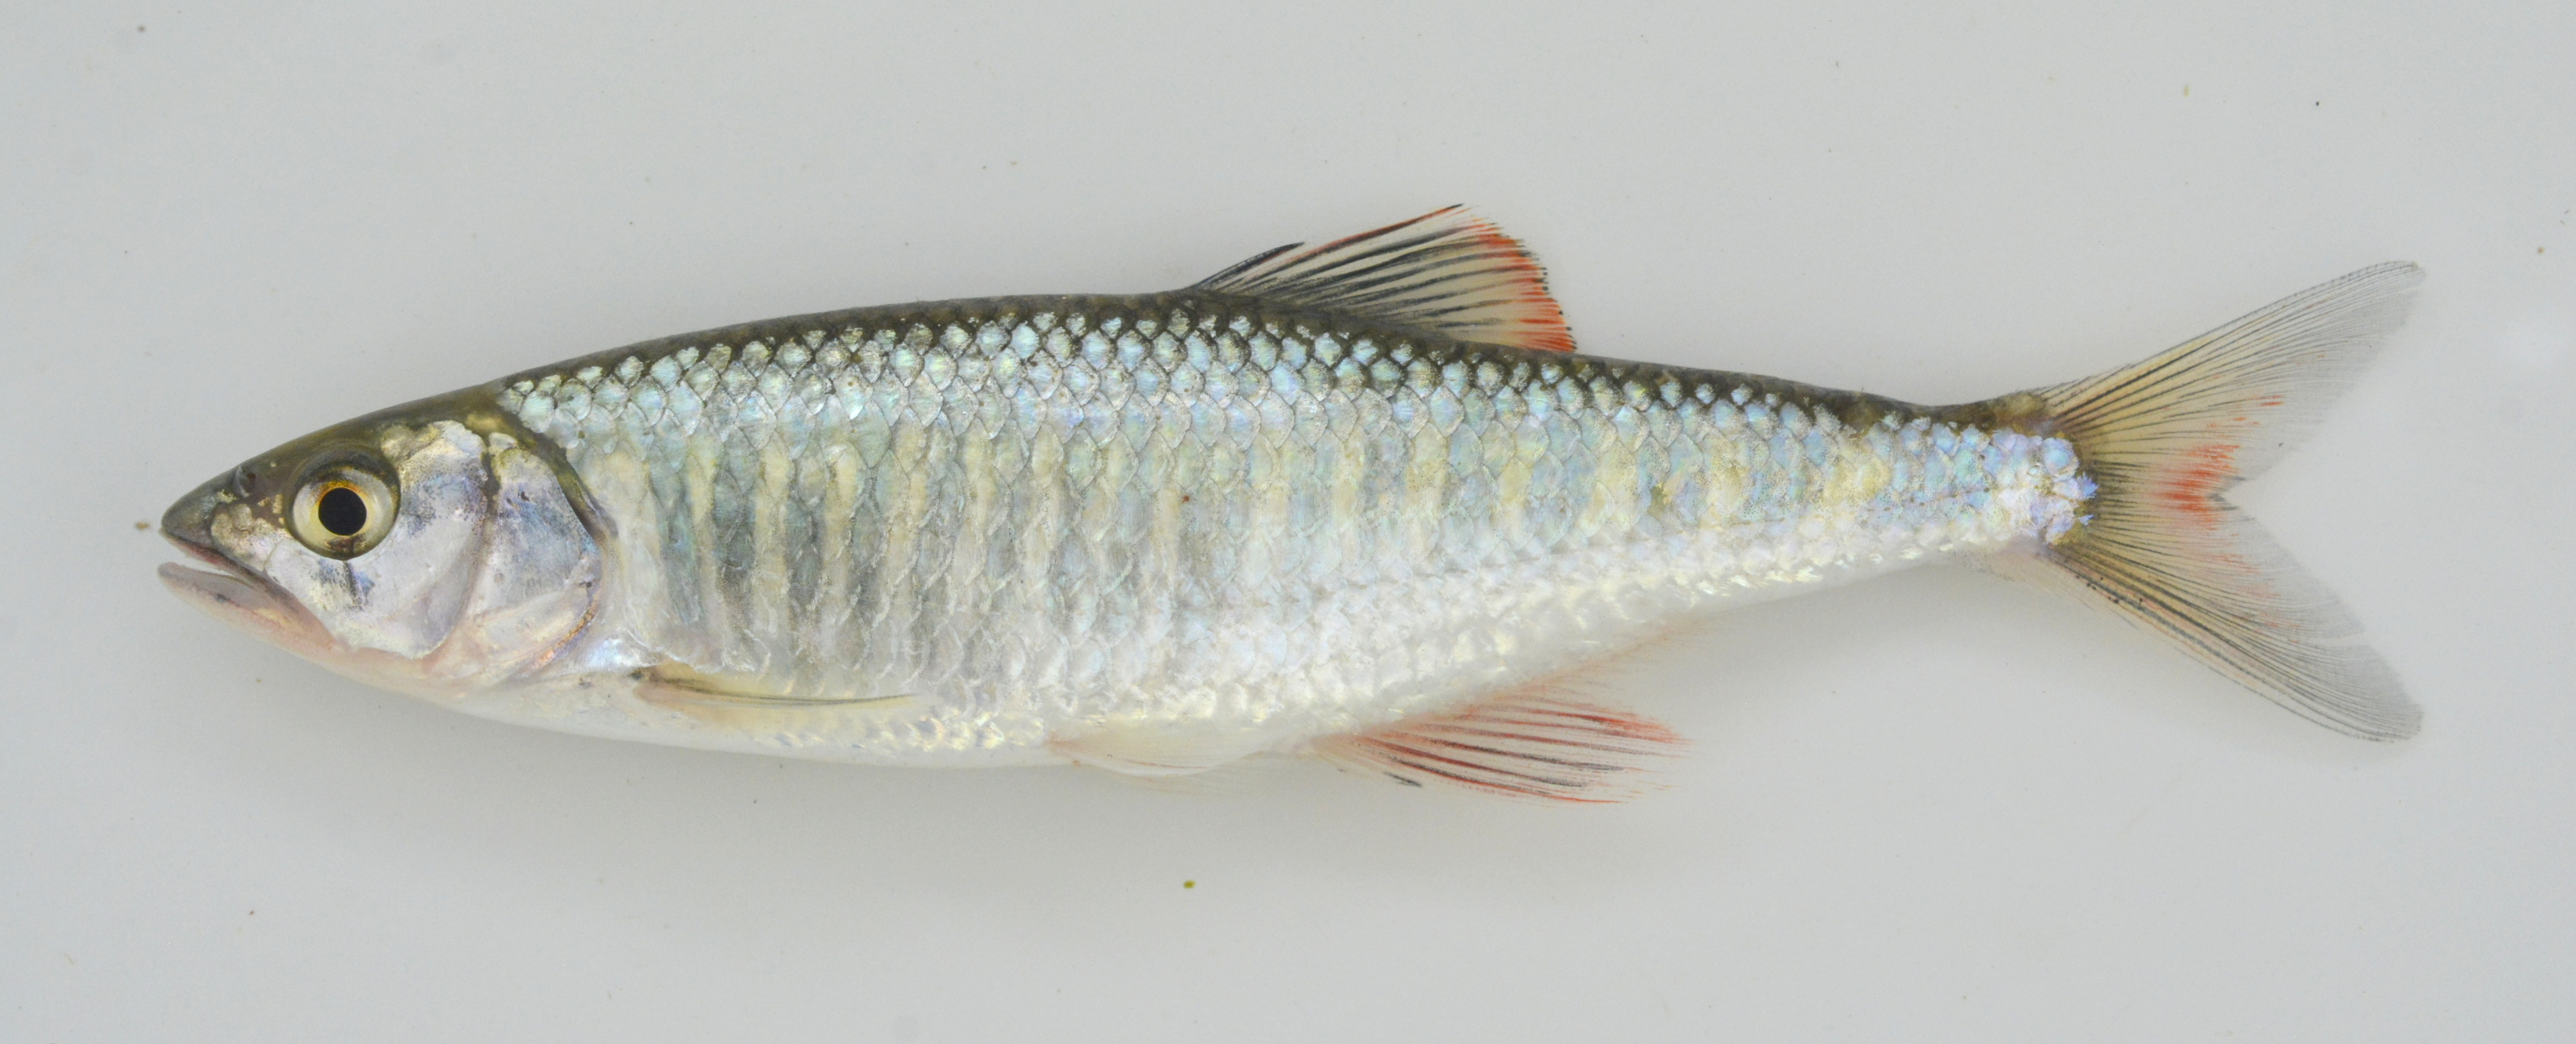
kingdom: Animalia
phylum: Chordata
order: Cypriniformes
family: Cyprinidae
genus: Opsaridium
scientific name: Opsaridium zambezense
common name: Barred minnow
